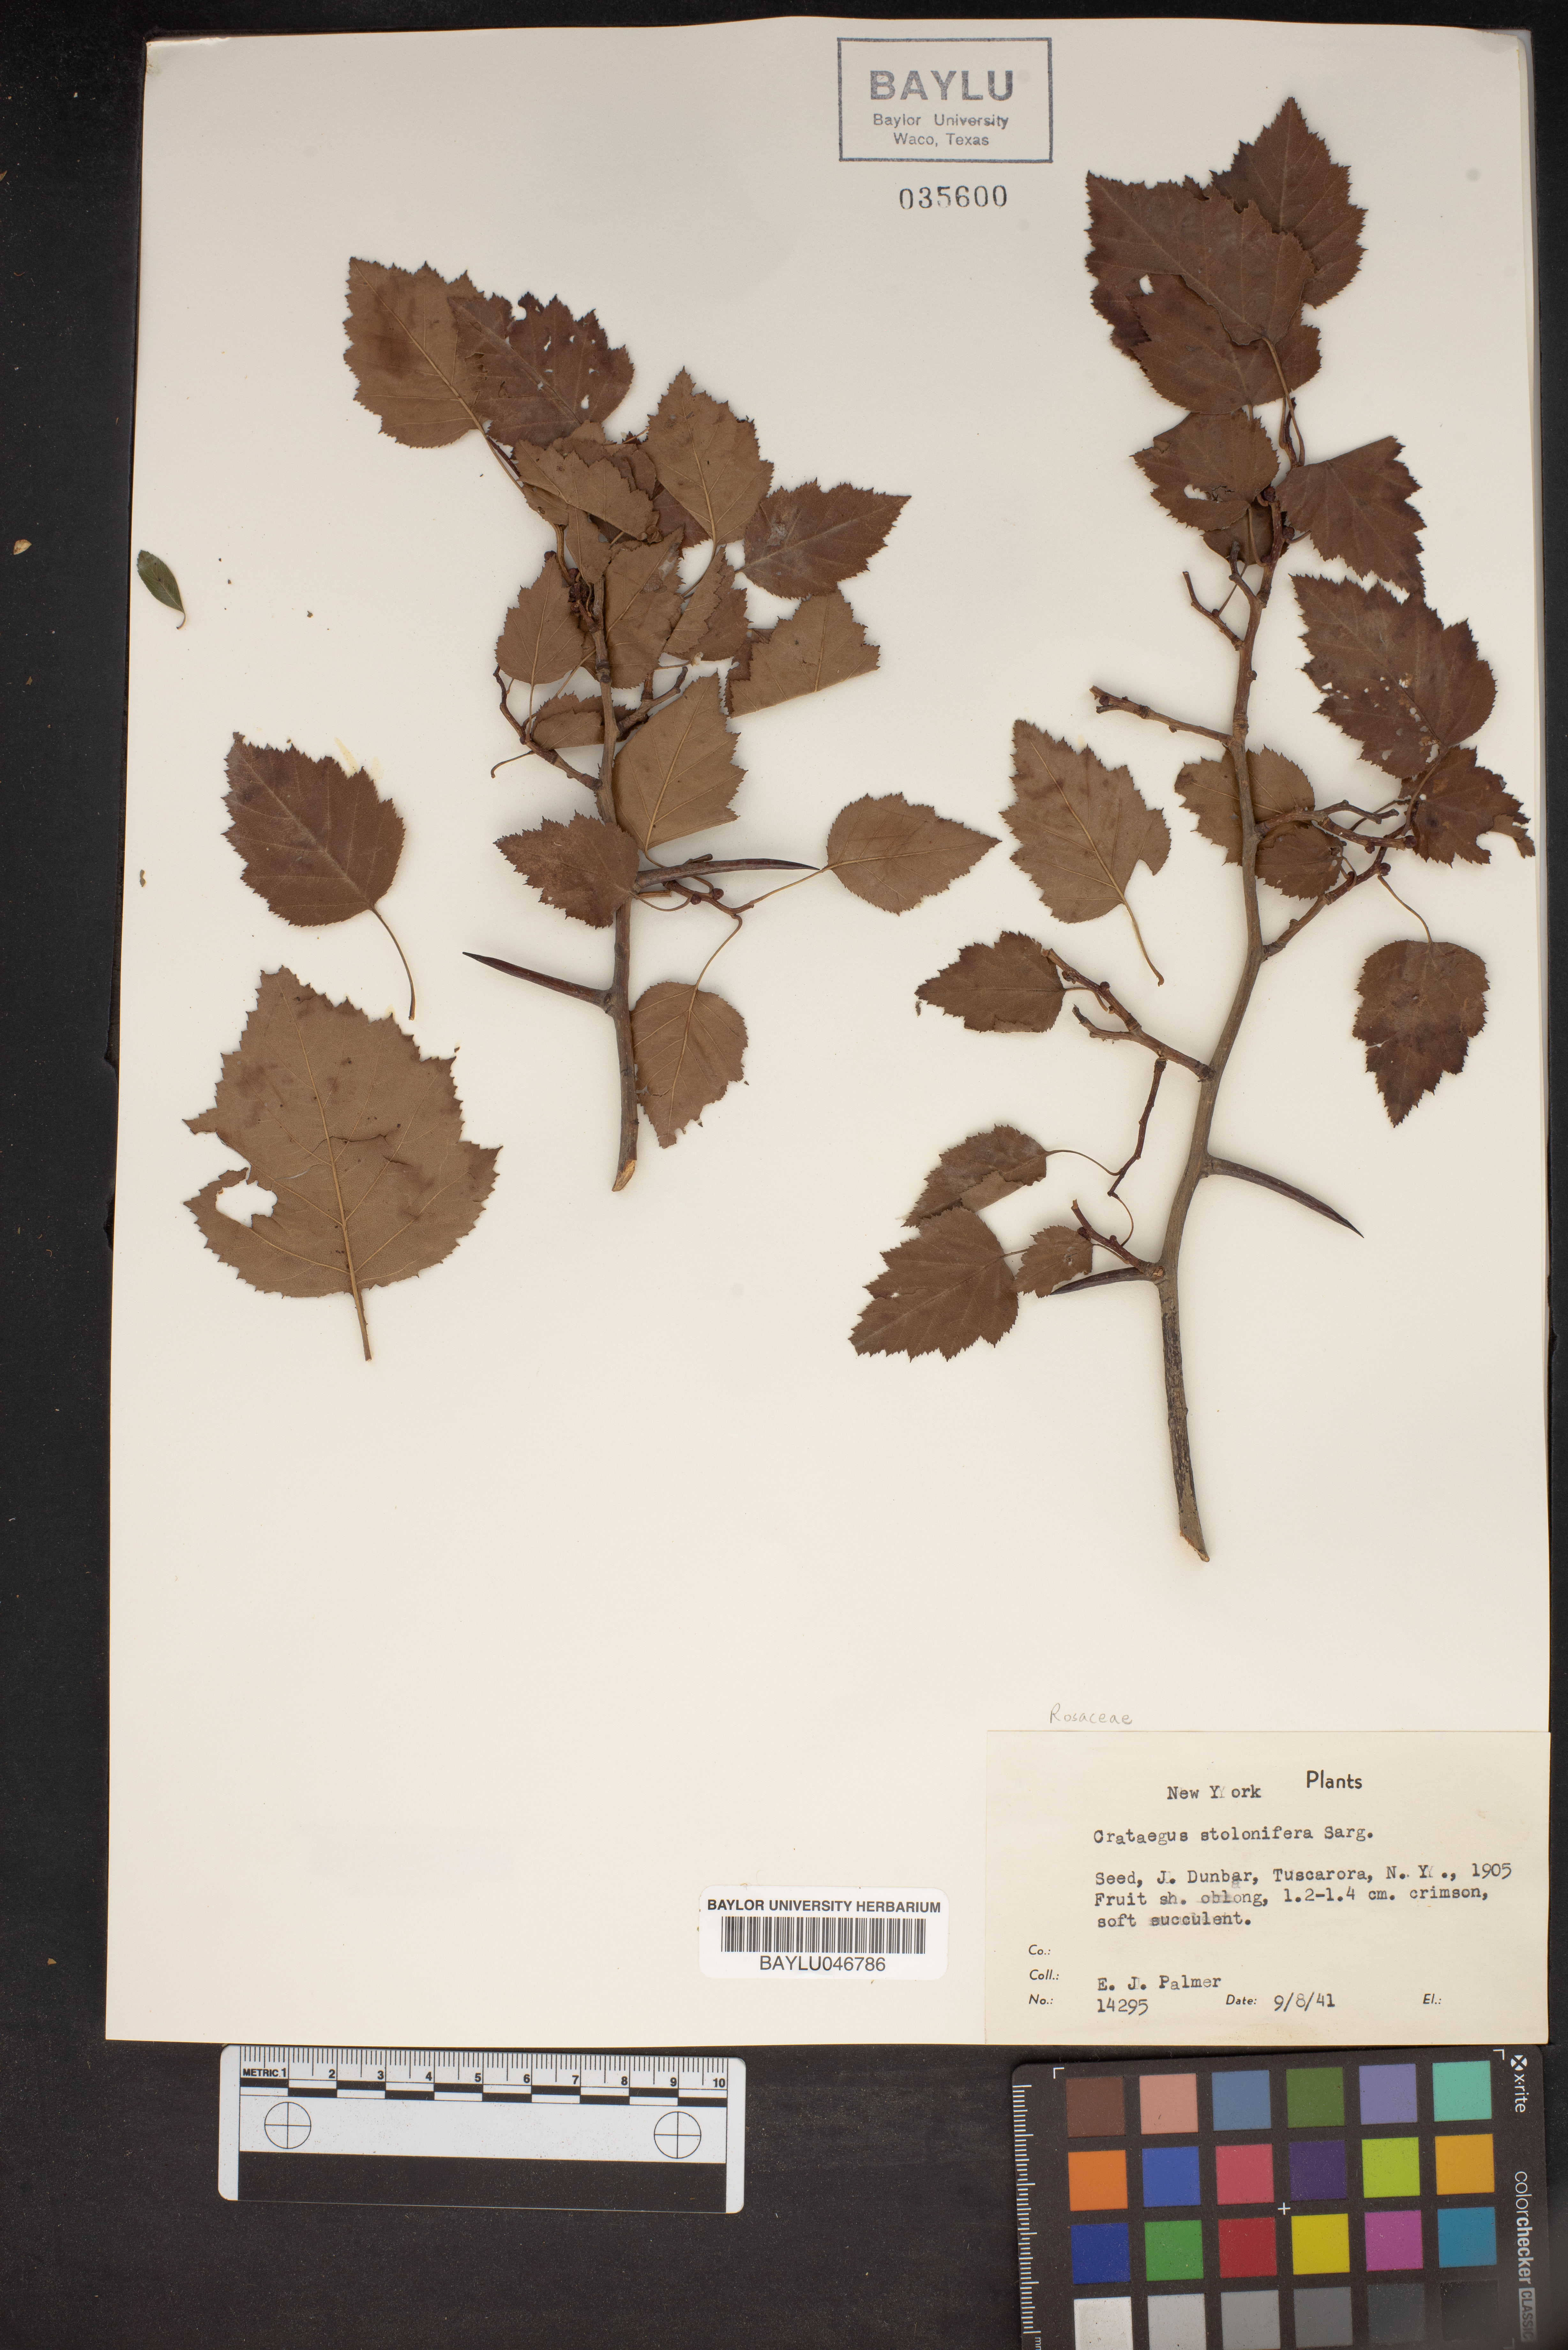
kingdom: Plantae
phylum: Tracheophyta
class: Magnoliopsida
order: Rosales
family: Rosaceae
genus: Crataegus
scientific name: Crataegus iracunda
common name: Stolon-bearing hawthorn
